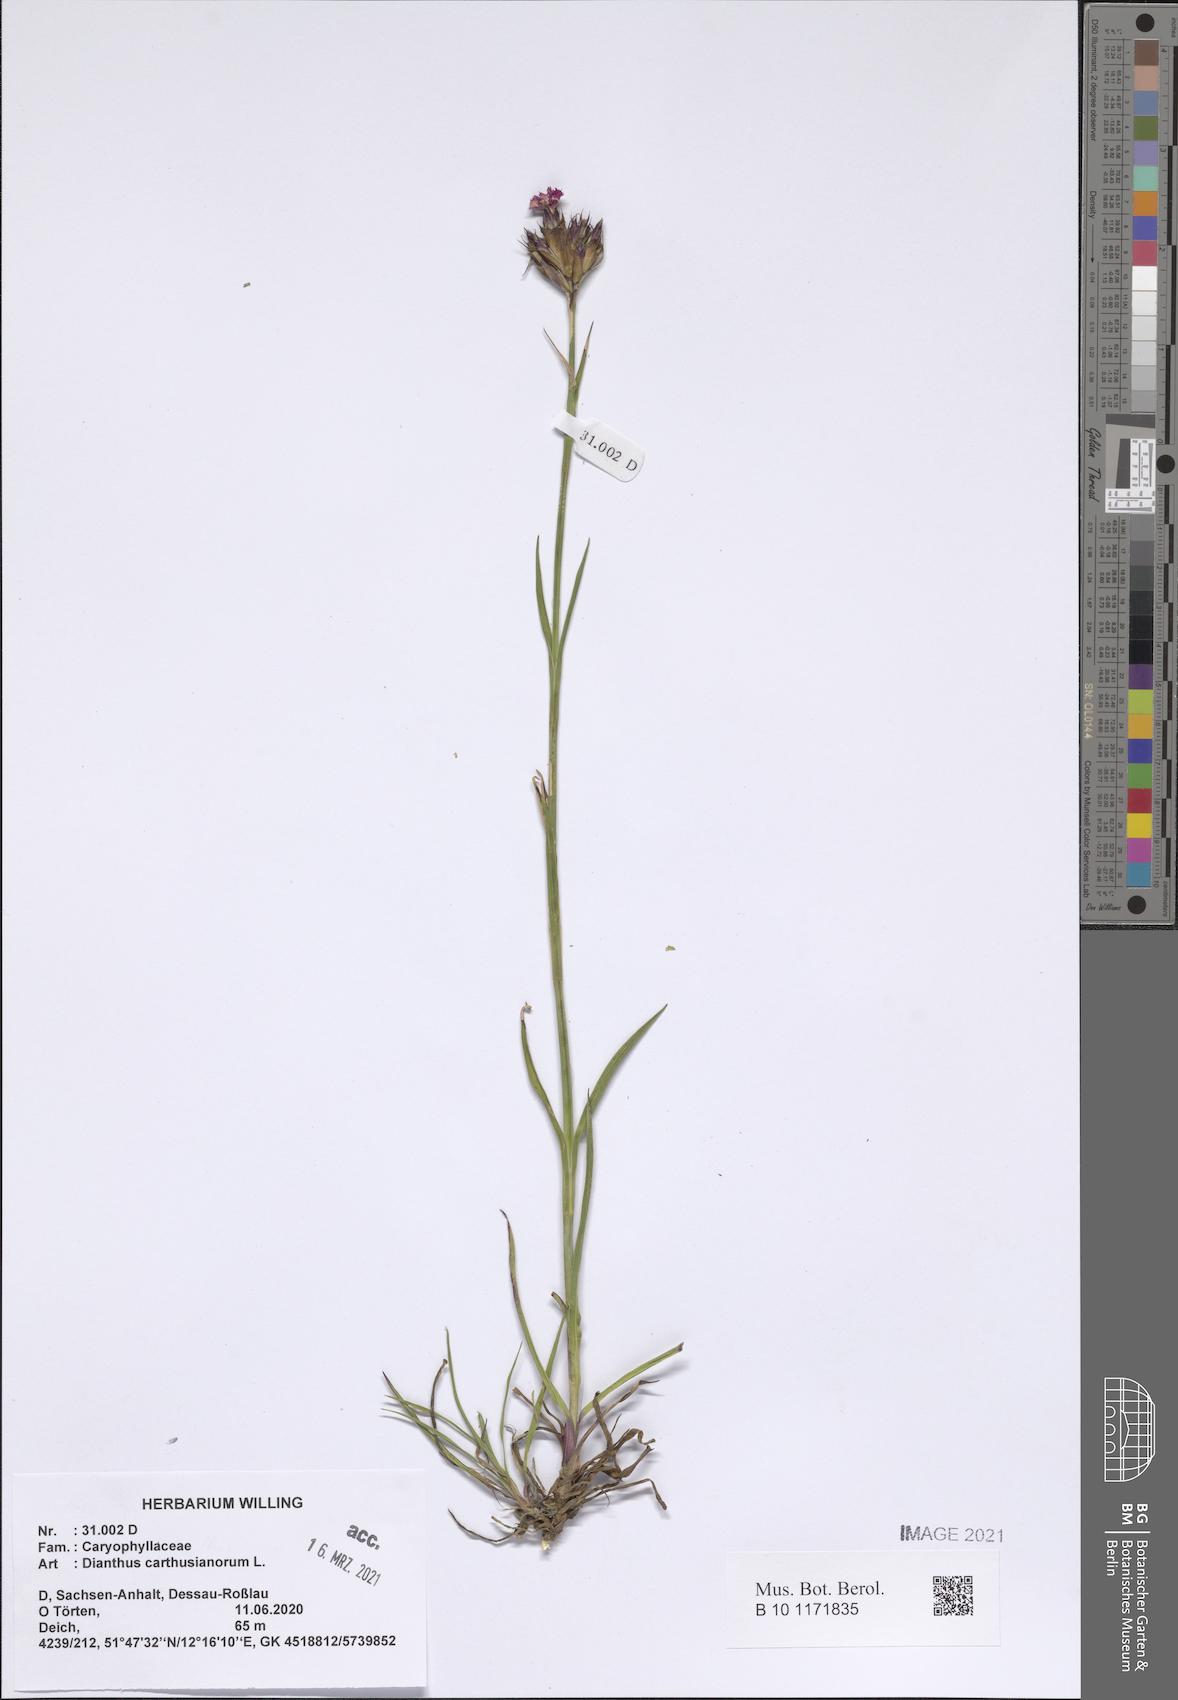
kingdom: Plantae
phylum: Tracheophyta
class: Magnoliopsida
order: Caryophyllales
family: Caryophyllaceae
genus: Dianthus
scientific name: Dianthus carthusianorum
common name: Carthusian pink
